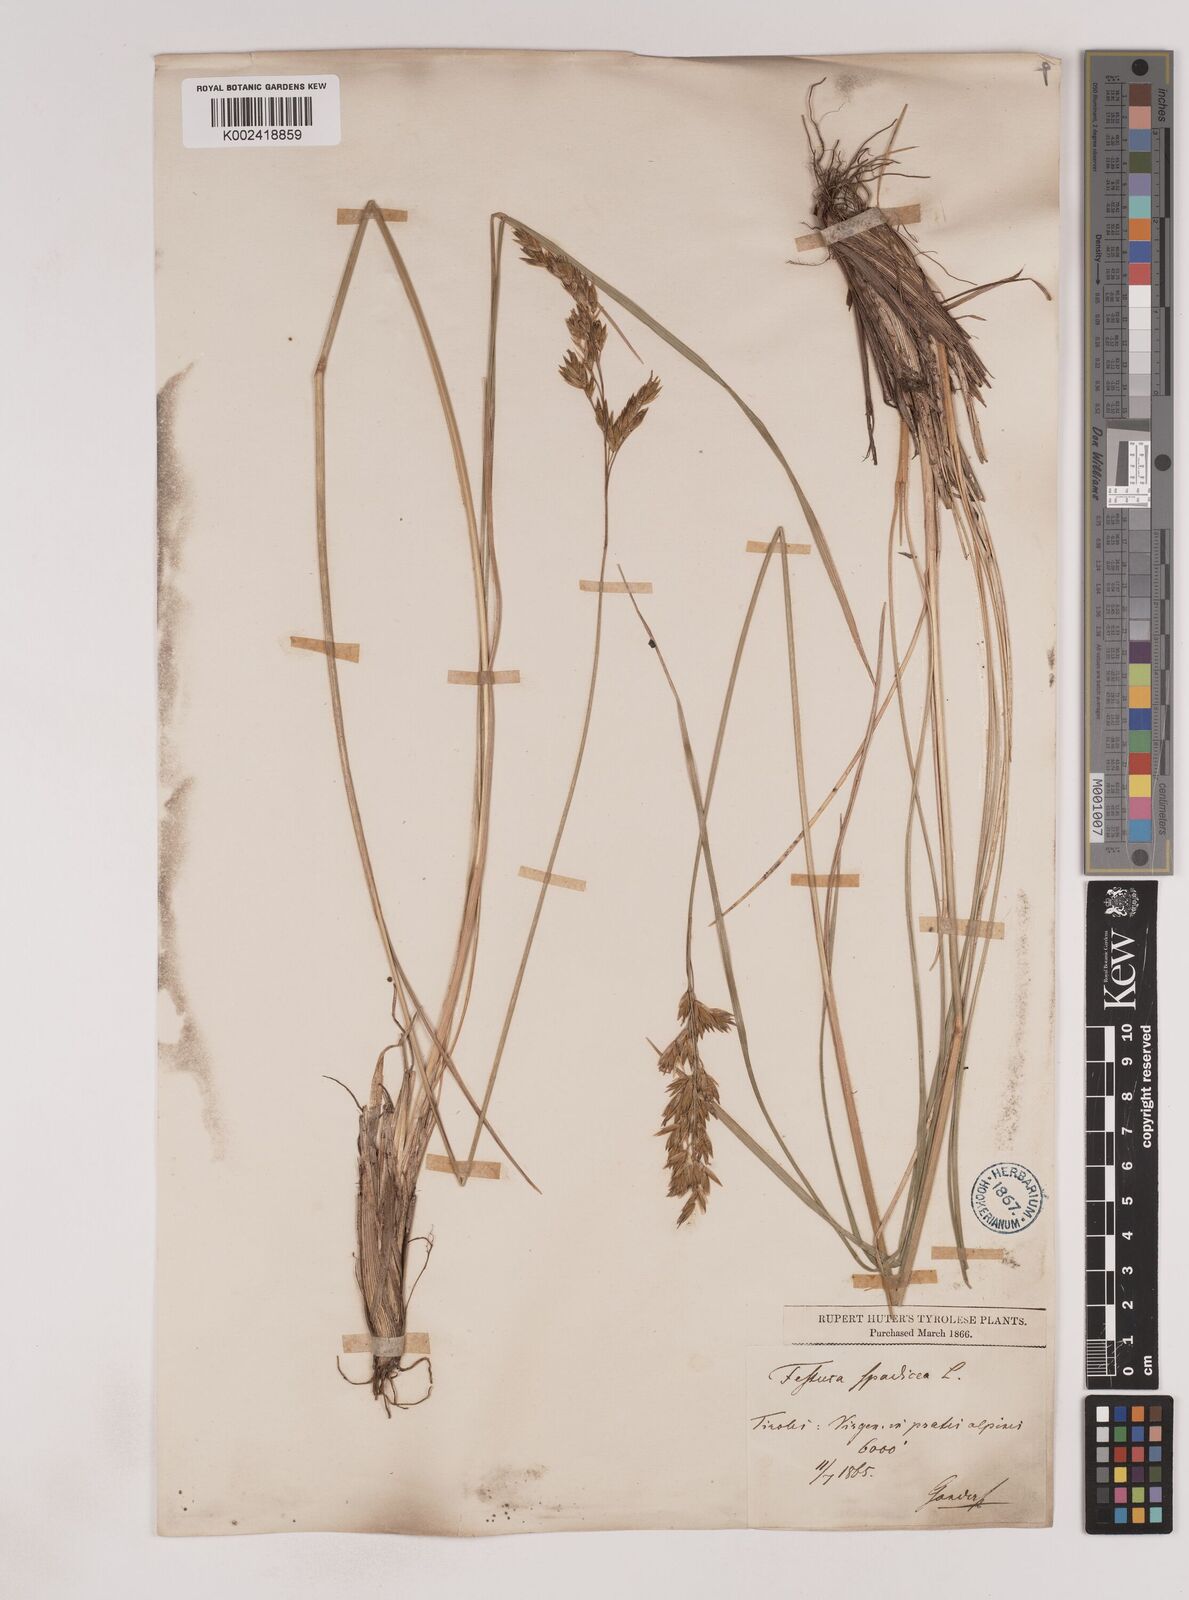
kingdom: Plantae
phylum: Tracheophyta
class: Liliopsida
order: Poales
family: Poaceae
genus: Patzkea
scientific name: Patzkea paniculata
